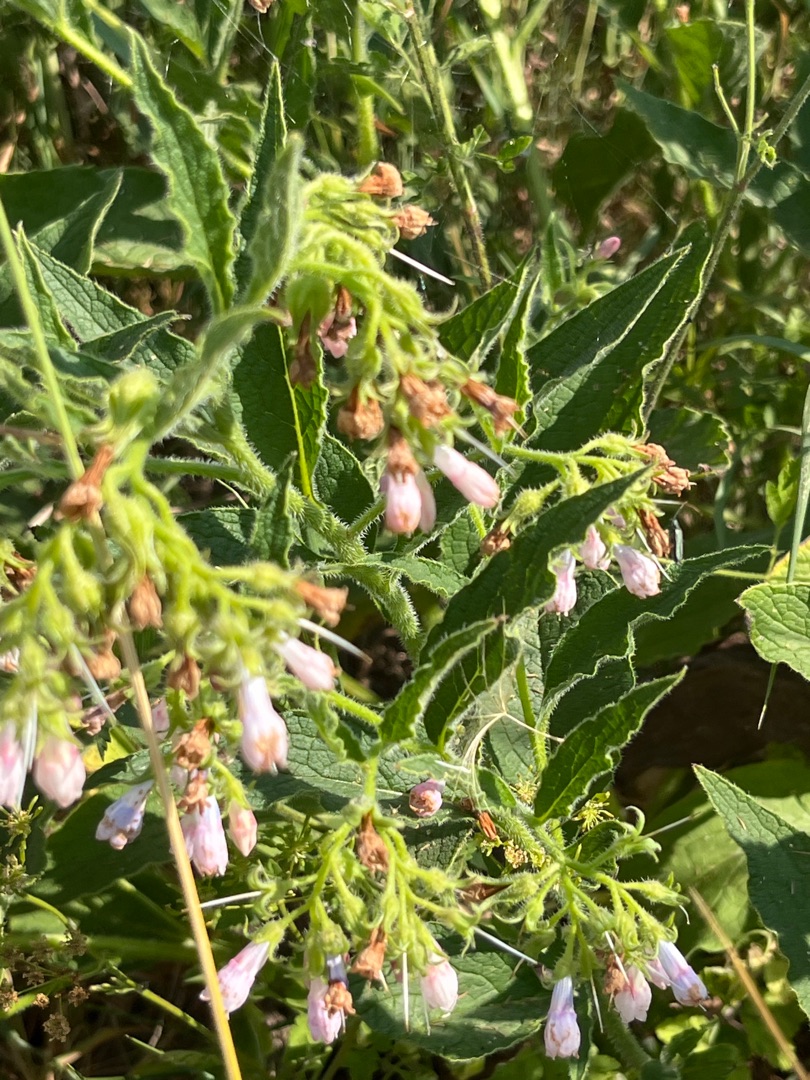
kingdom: Plantae
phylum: Tracheophyta
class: Magnoliopsida
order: Boraginales
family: Boraginaceae
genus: Symphytum
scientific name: Symphytum uplandicum
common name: Foder-kulsukker
